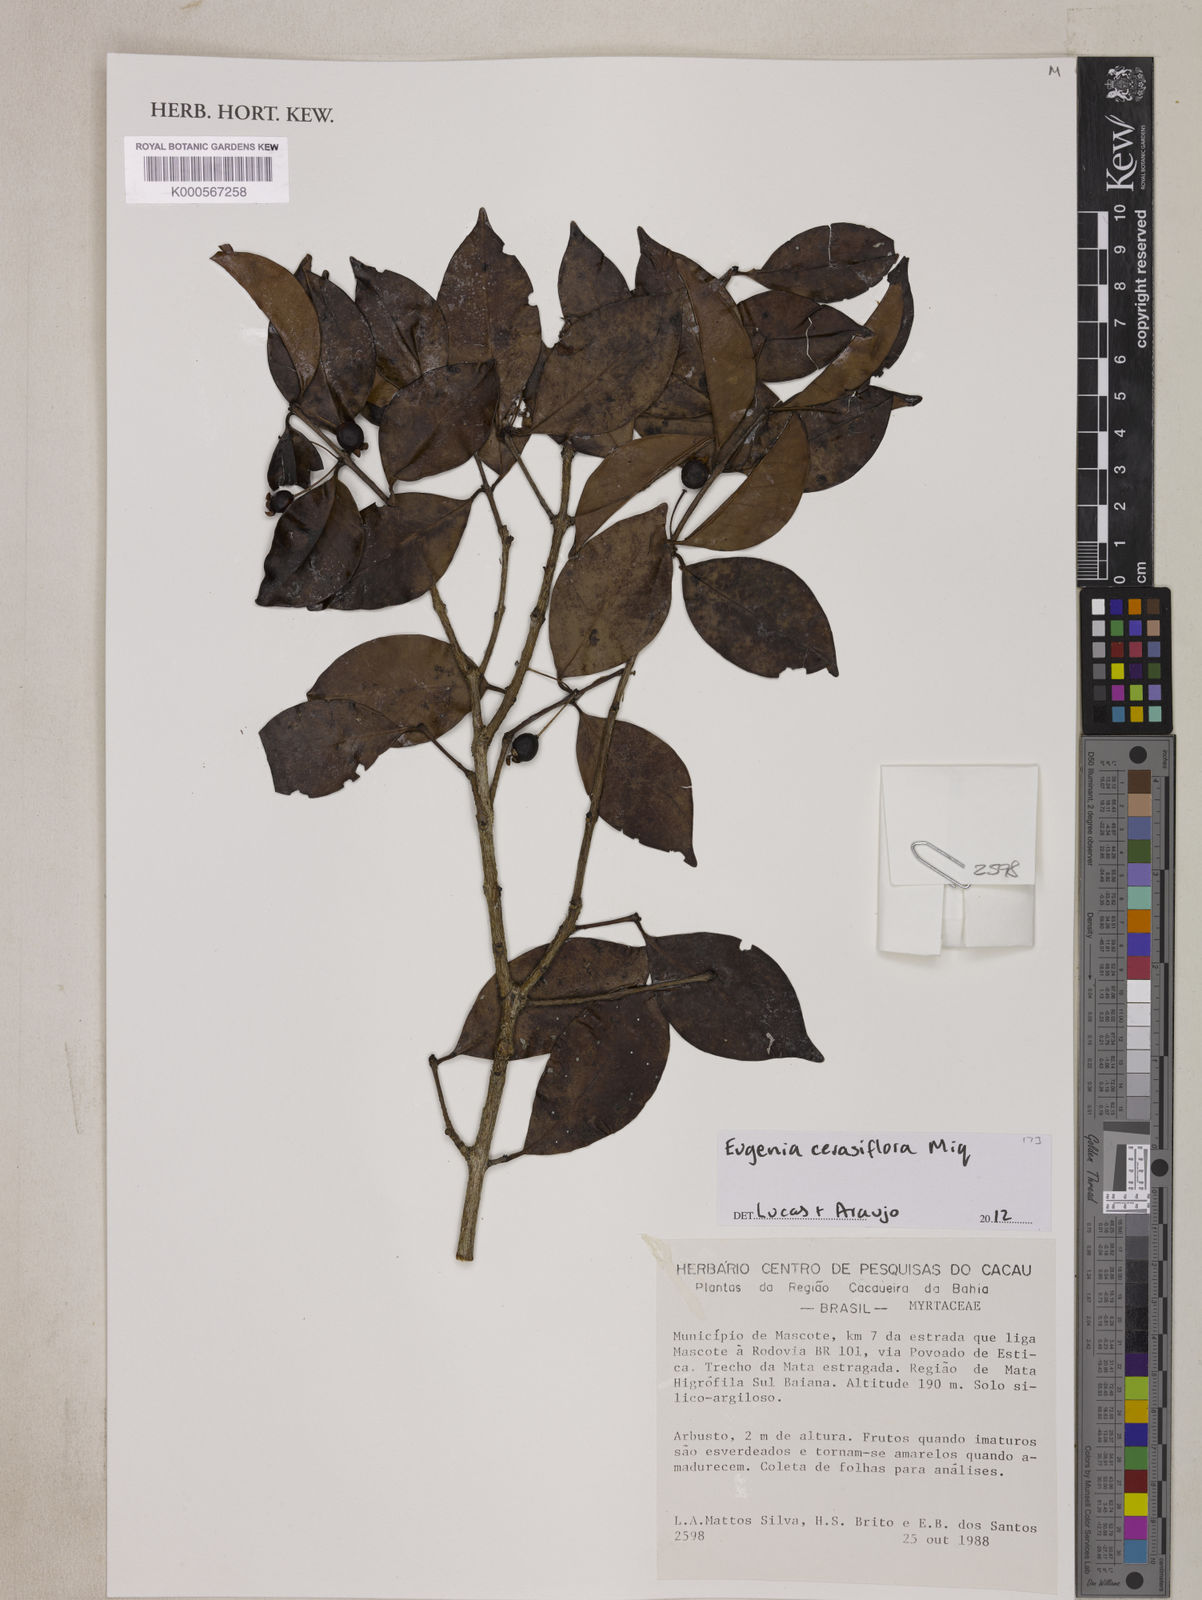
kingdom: Plantae
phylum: Tracheophyta
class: Magnoliopsida
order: Myrtales
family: Myrtaceae
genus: Eugenia
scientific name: Eugenia cerasiflora
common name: Cherry-of-the-rio-grande
